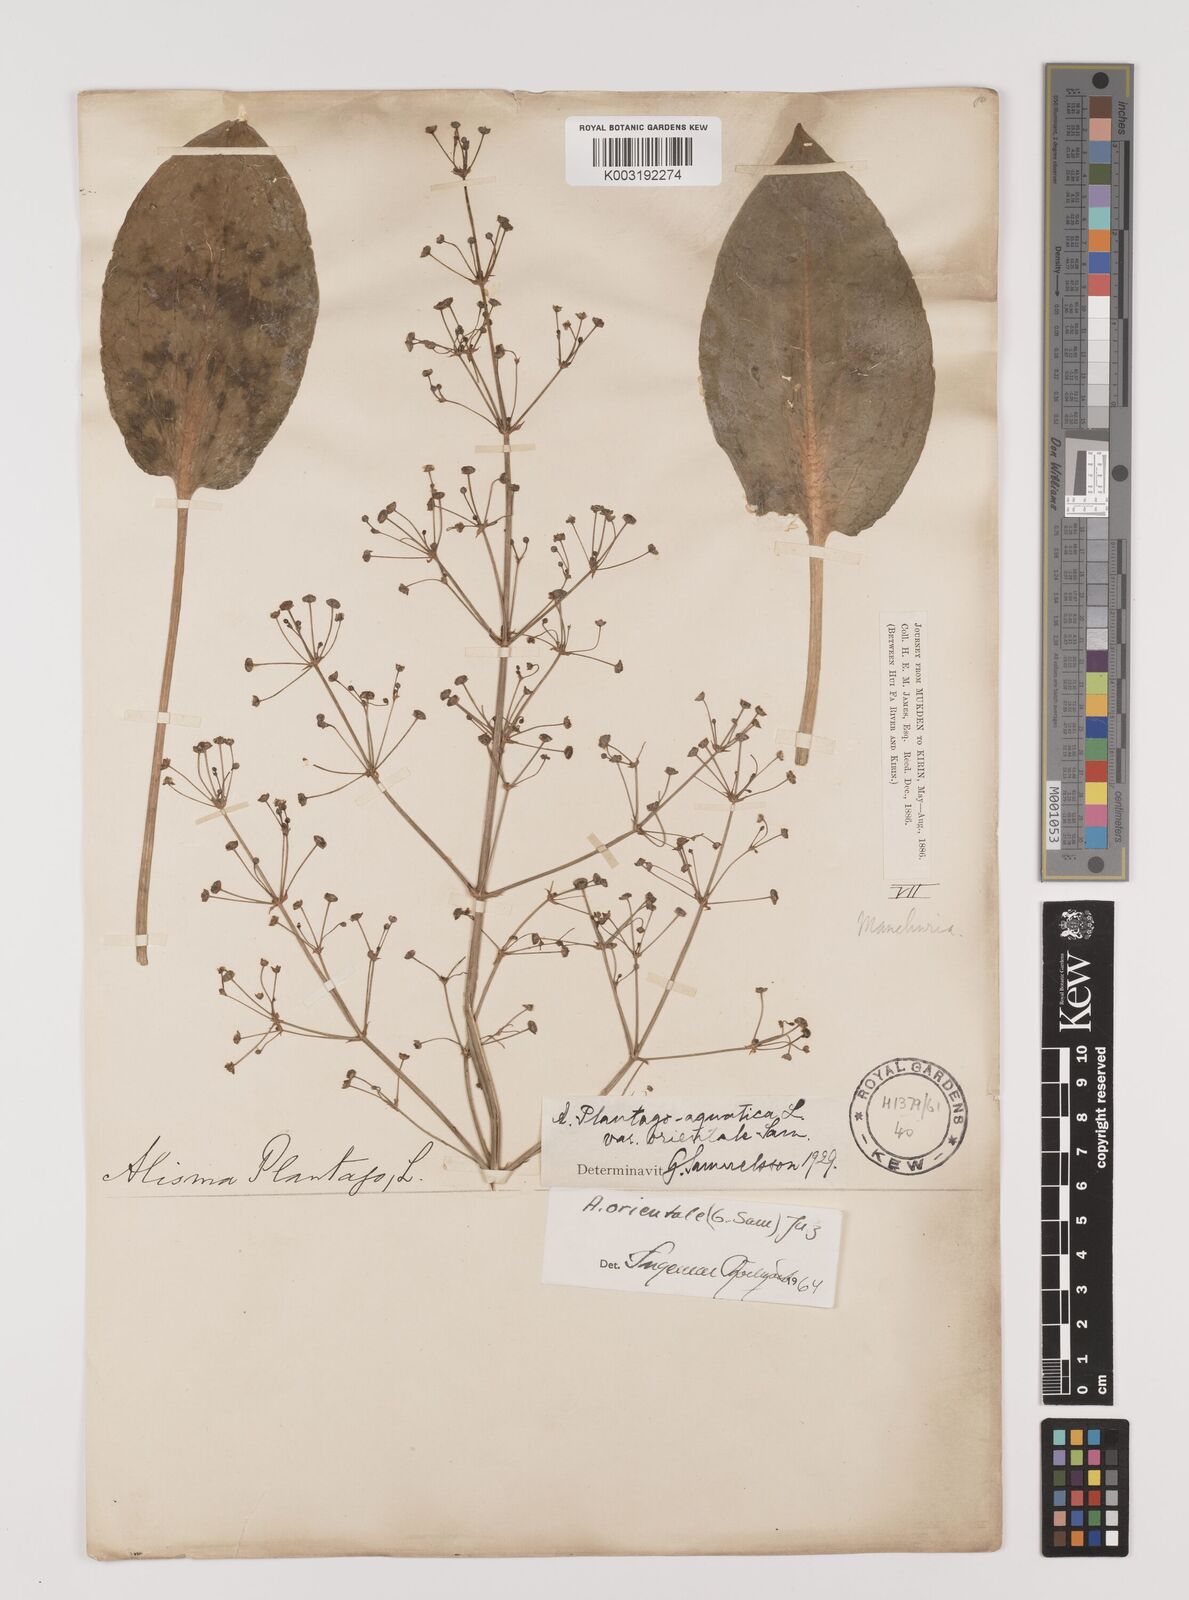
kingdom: Plantae
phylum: Tracheophyta
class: Liliopsida
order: Alismatales
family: Alismataceae
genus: Alisma
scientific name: Alisma plantago-aquatica
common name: Water-plantain
